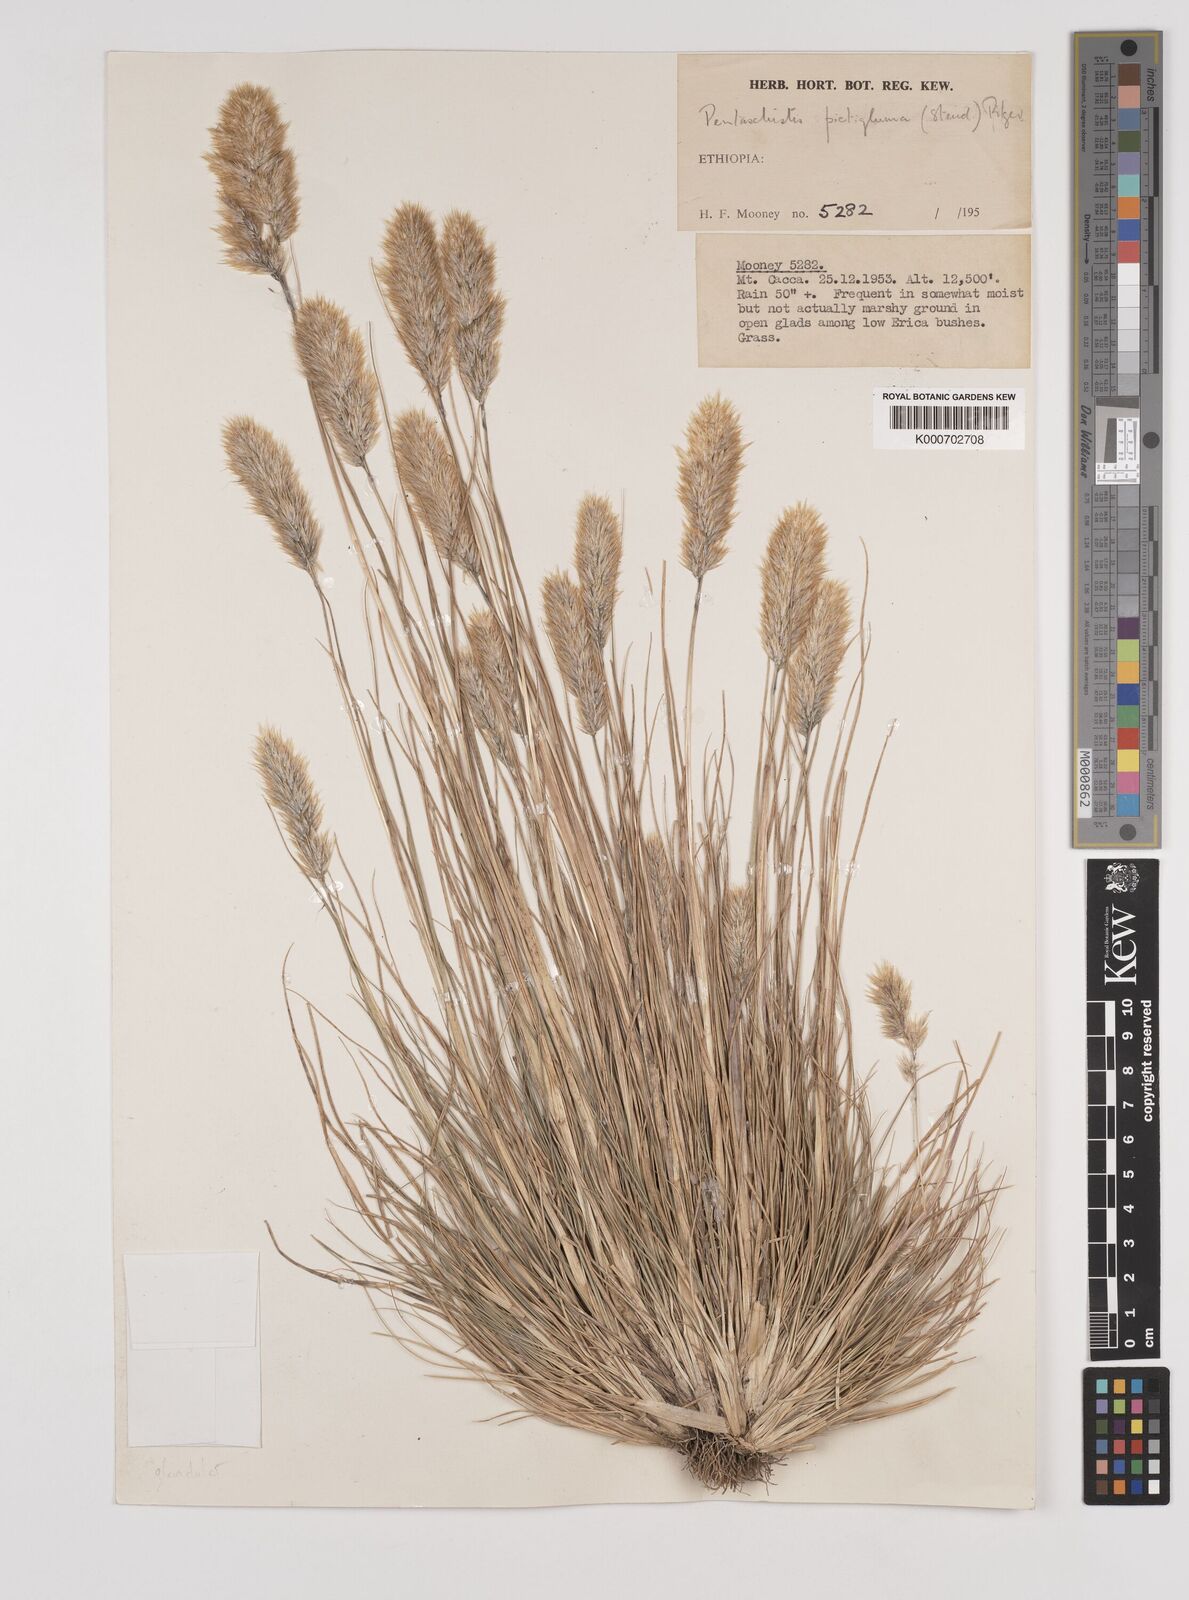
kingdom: Plantae
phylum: Tracheophyta
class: Liliopsida
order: Poales
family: Poaceae
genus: Pentameris
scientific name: Pentameris pictigluma
